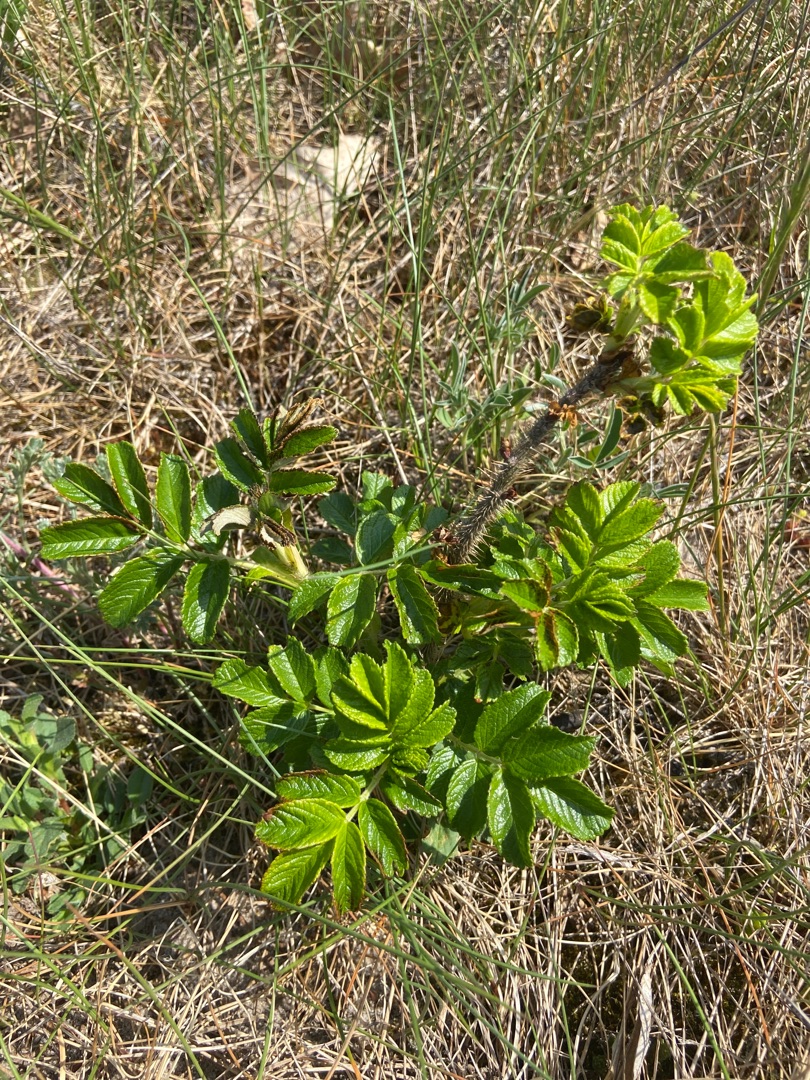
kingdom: Plantae
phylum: Tracheophyta
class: Magnoliopsida
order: Rosales
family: Rosaceae
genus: Rosa
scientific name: Rosa rugosa
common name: Rynket rose
